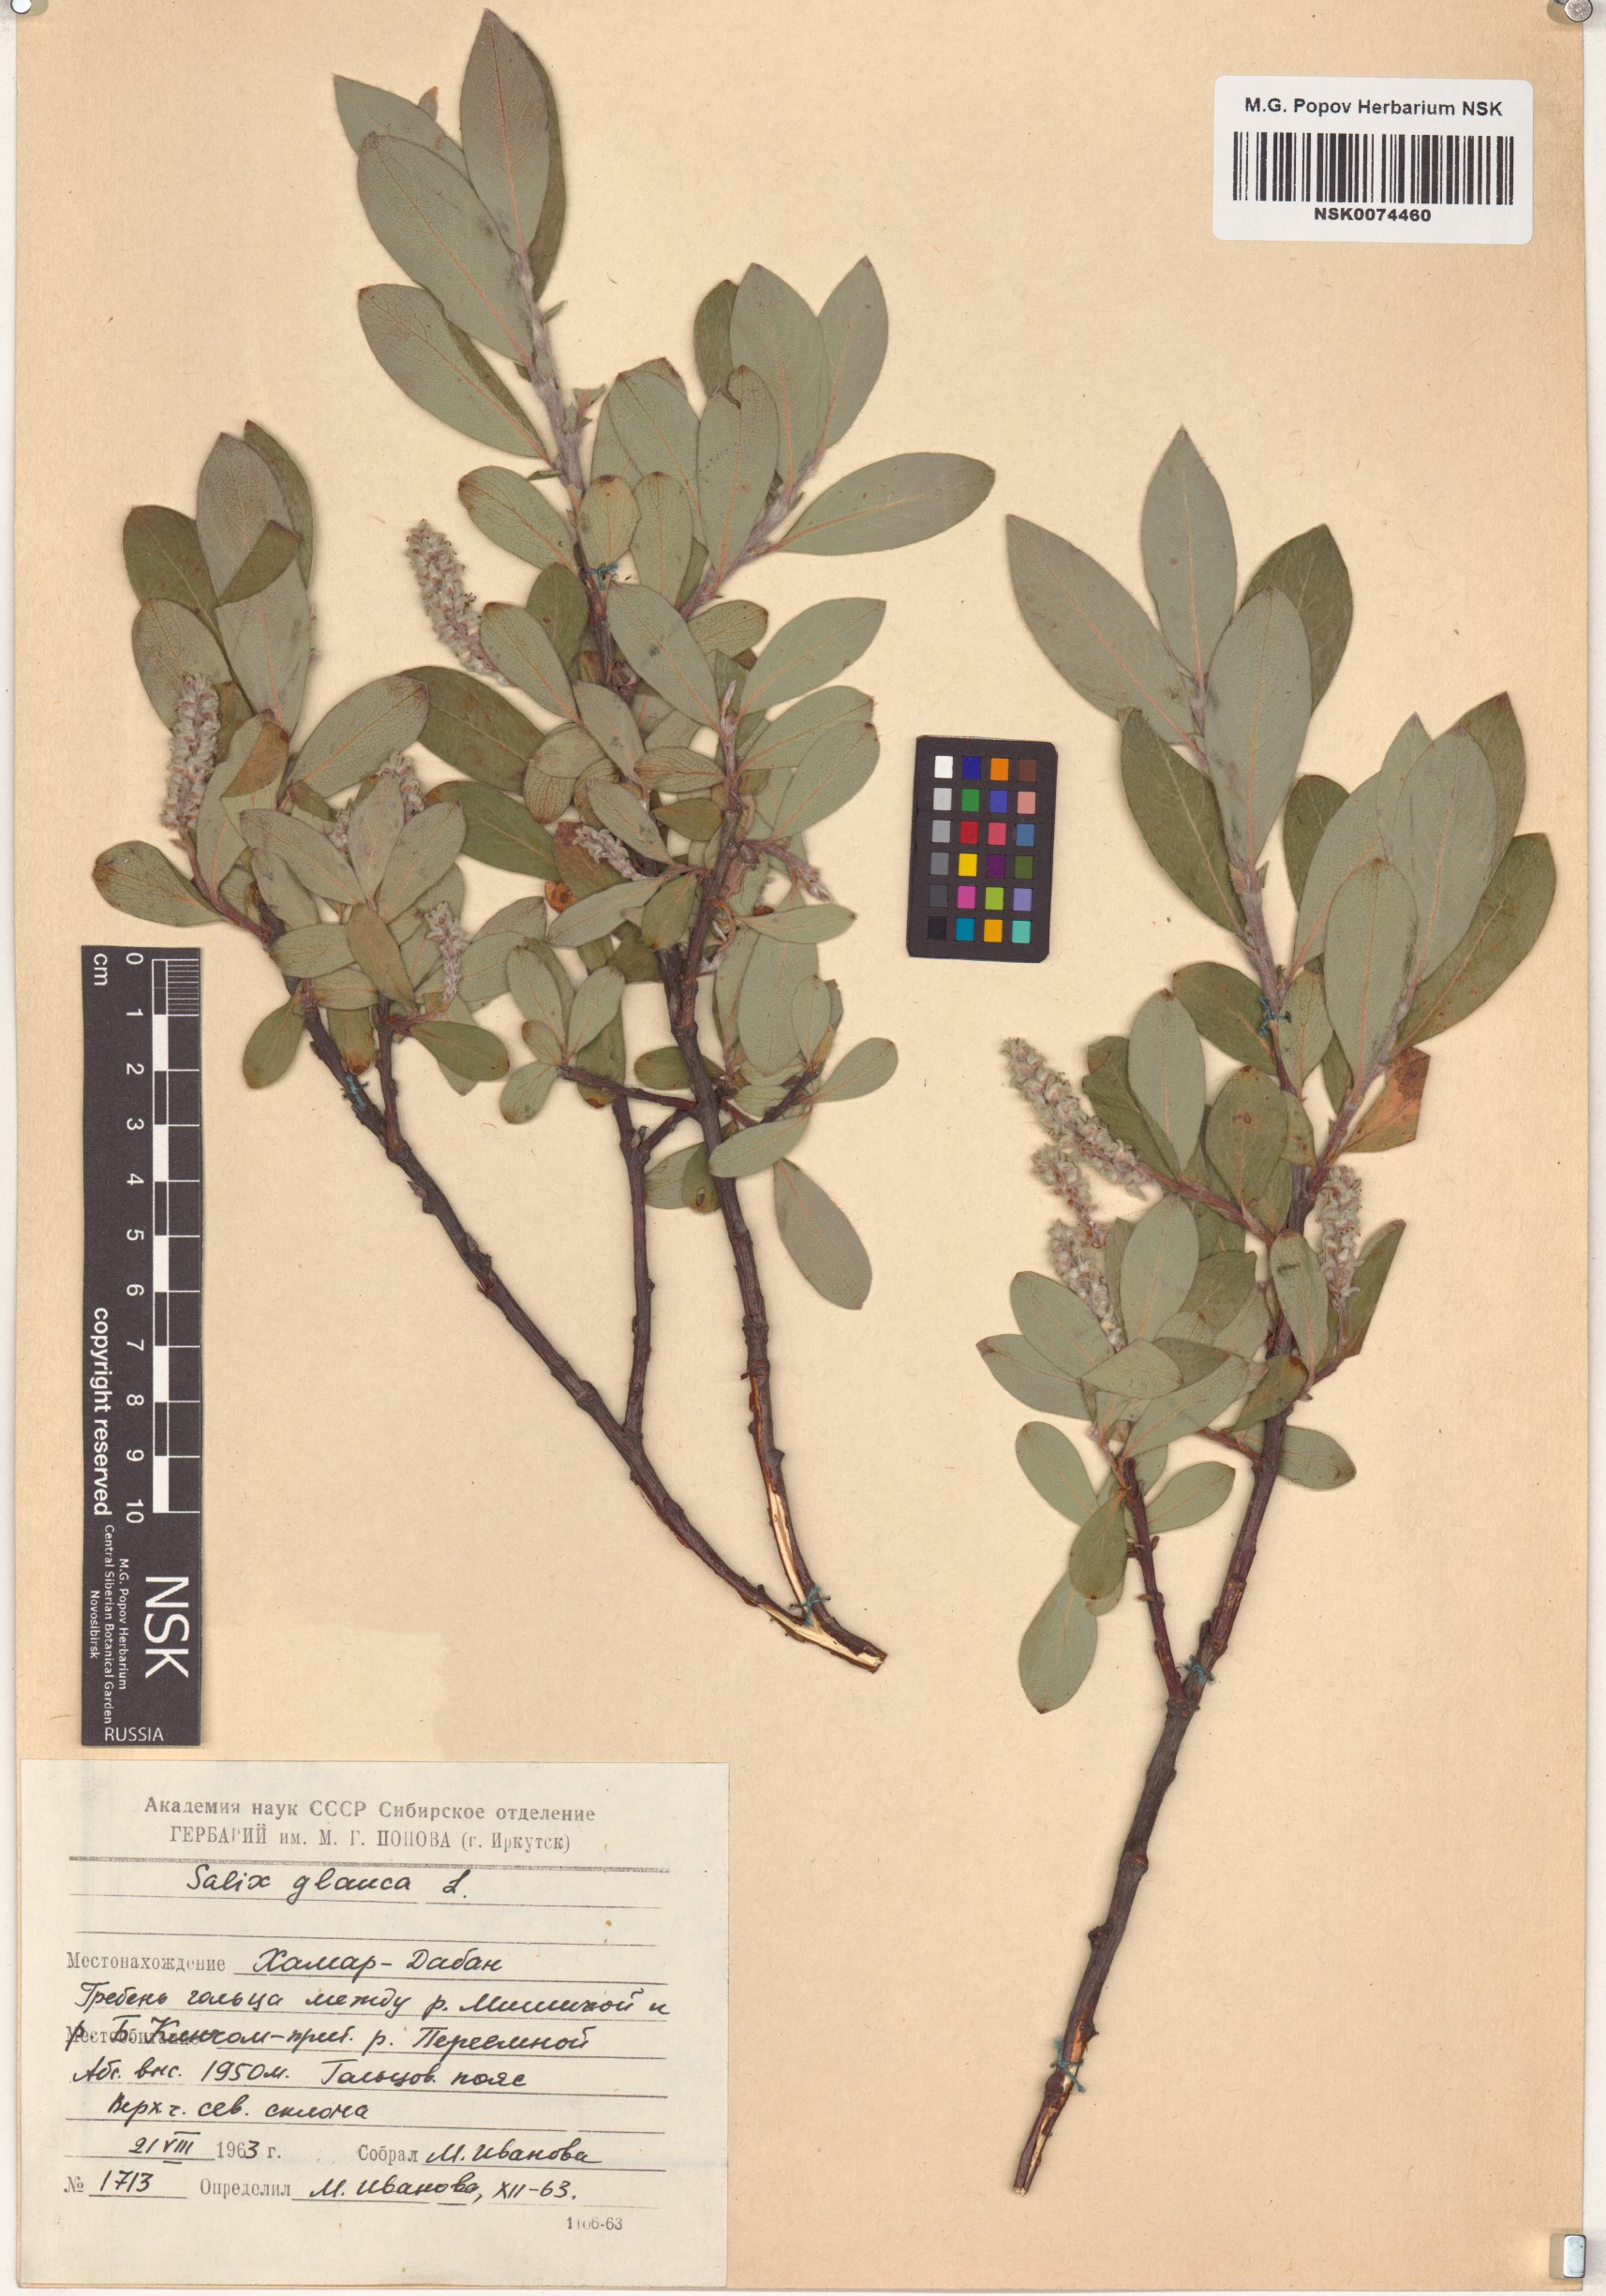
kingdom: Plantae
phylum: Tracheophyta
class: Magnoliopsida
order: Malpighiales
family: Salicaceae
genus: Salix
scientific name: Salix glauca
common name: Glaucous willow
